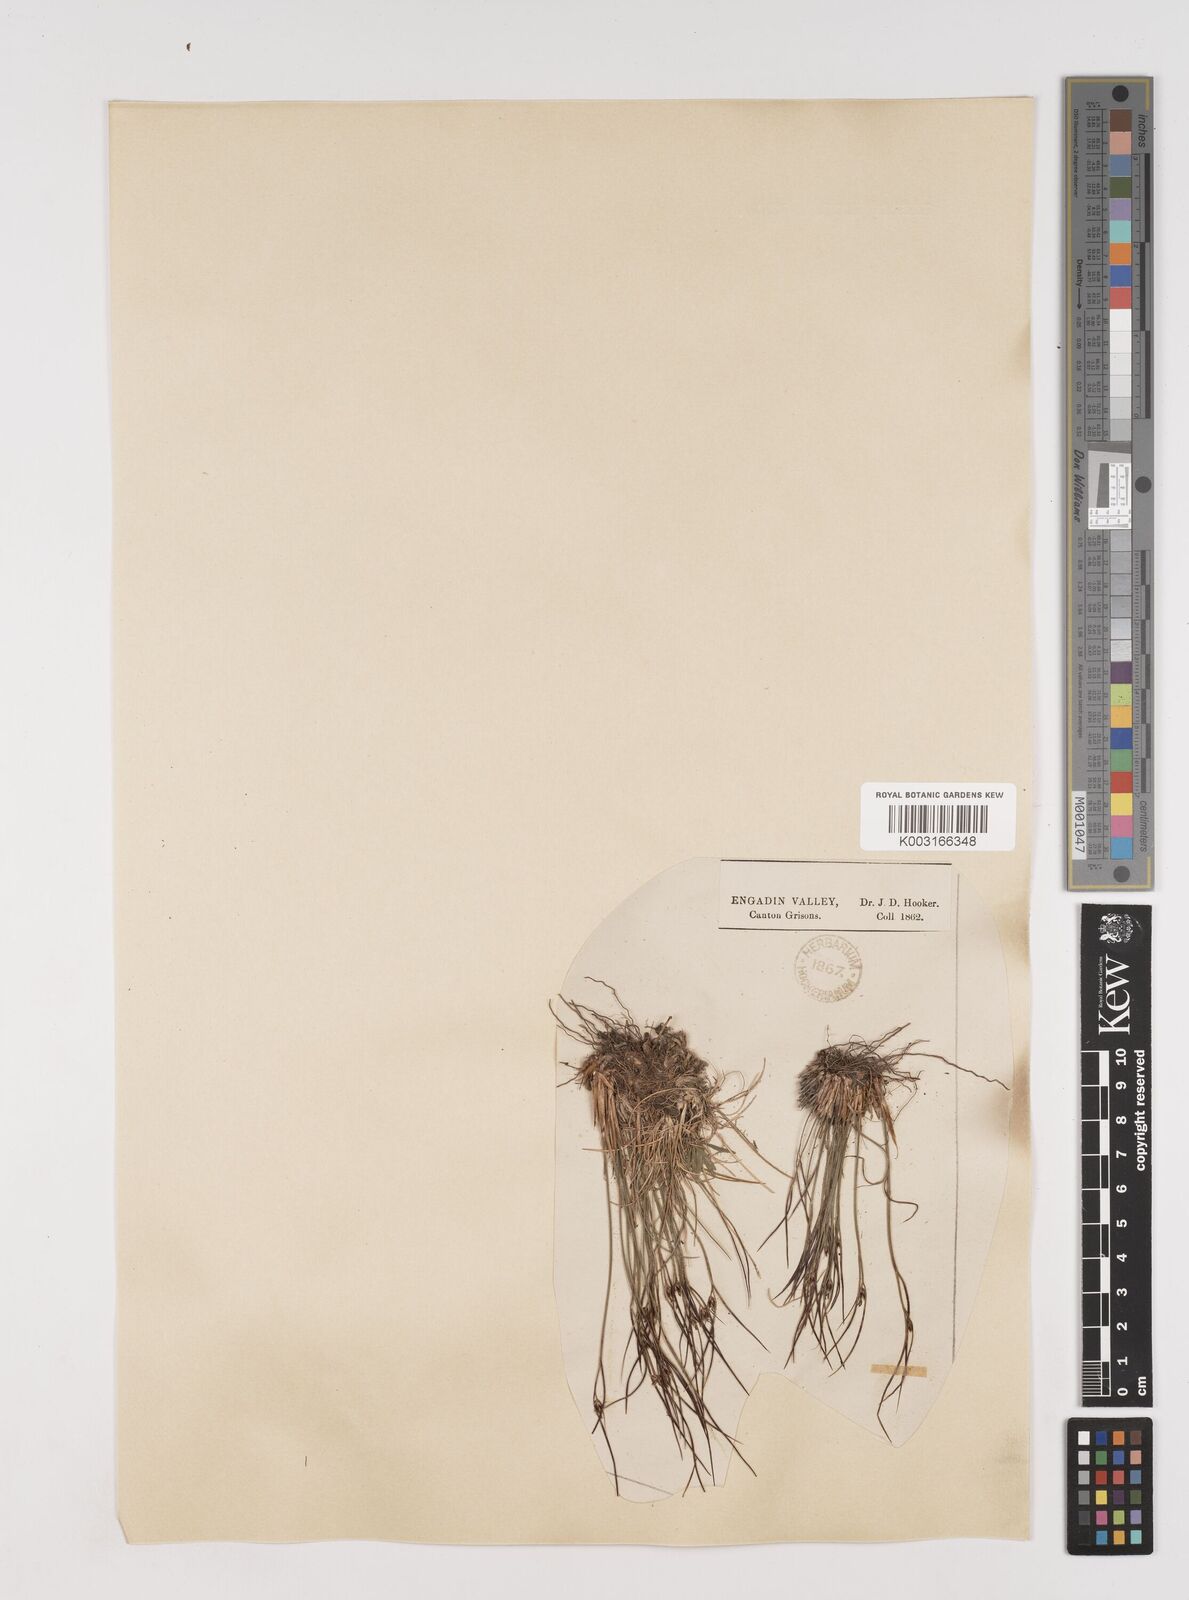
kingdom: Plantae
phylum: Tracheophyta
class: Liliopsida
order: Poales
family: Juncaceae
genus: Oreojuncus
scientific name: Oreojuncus trifidus
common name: Highland rush
